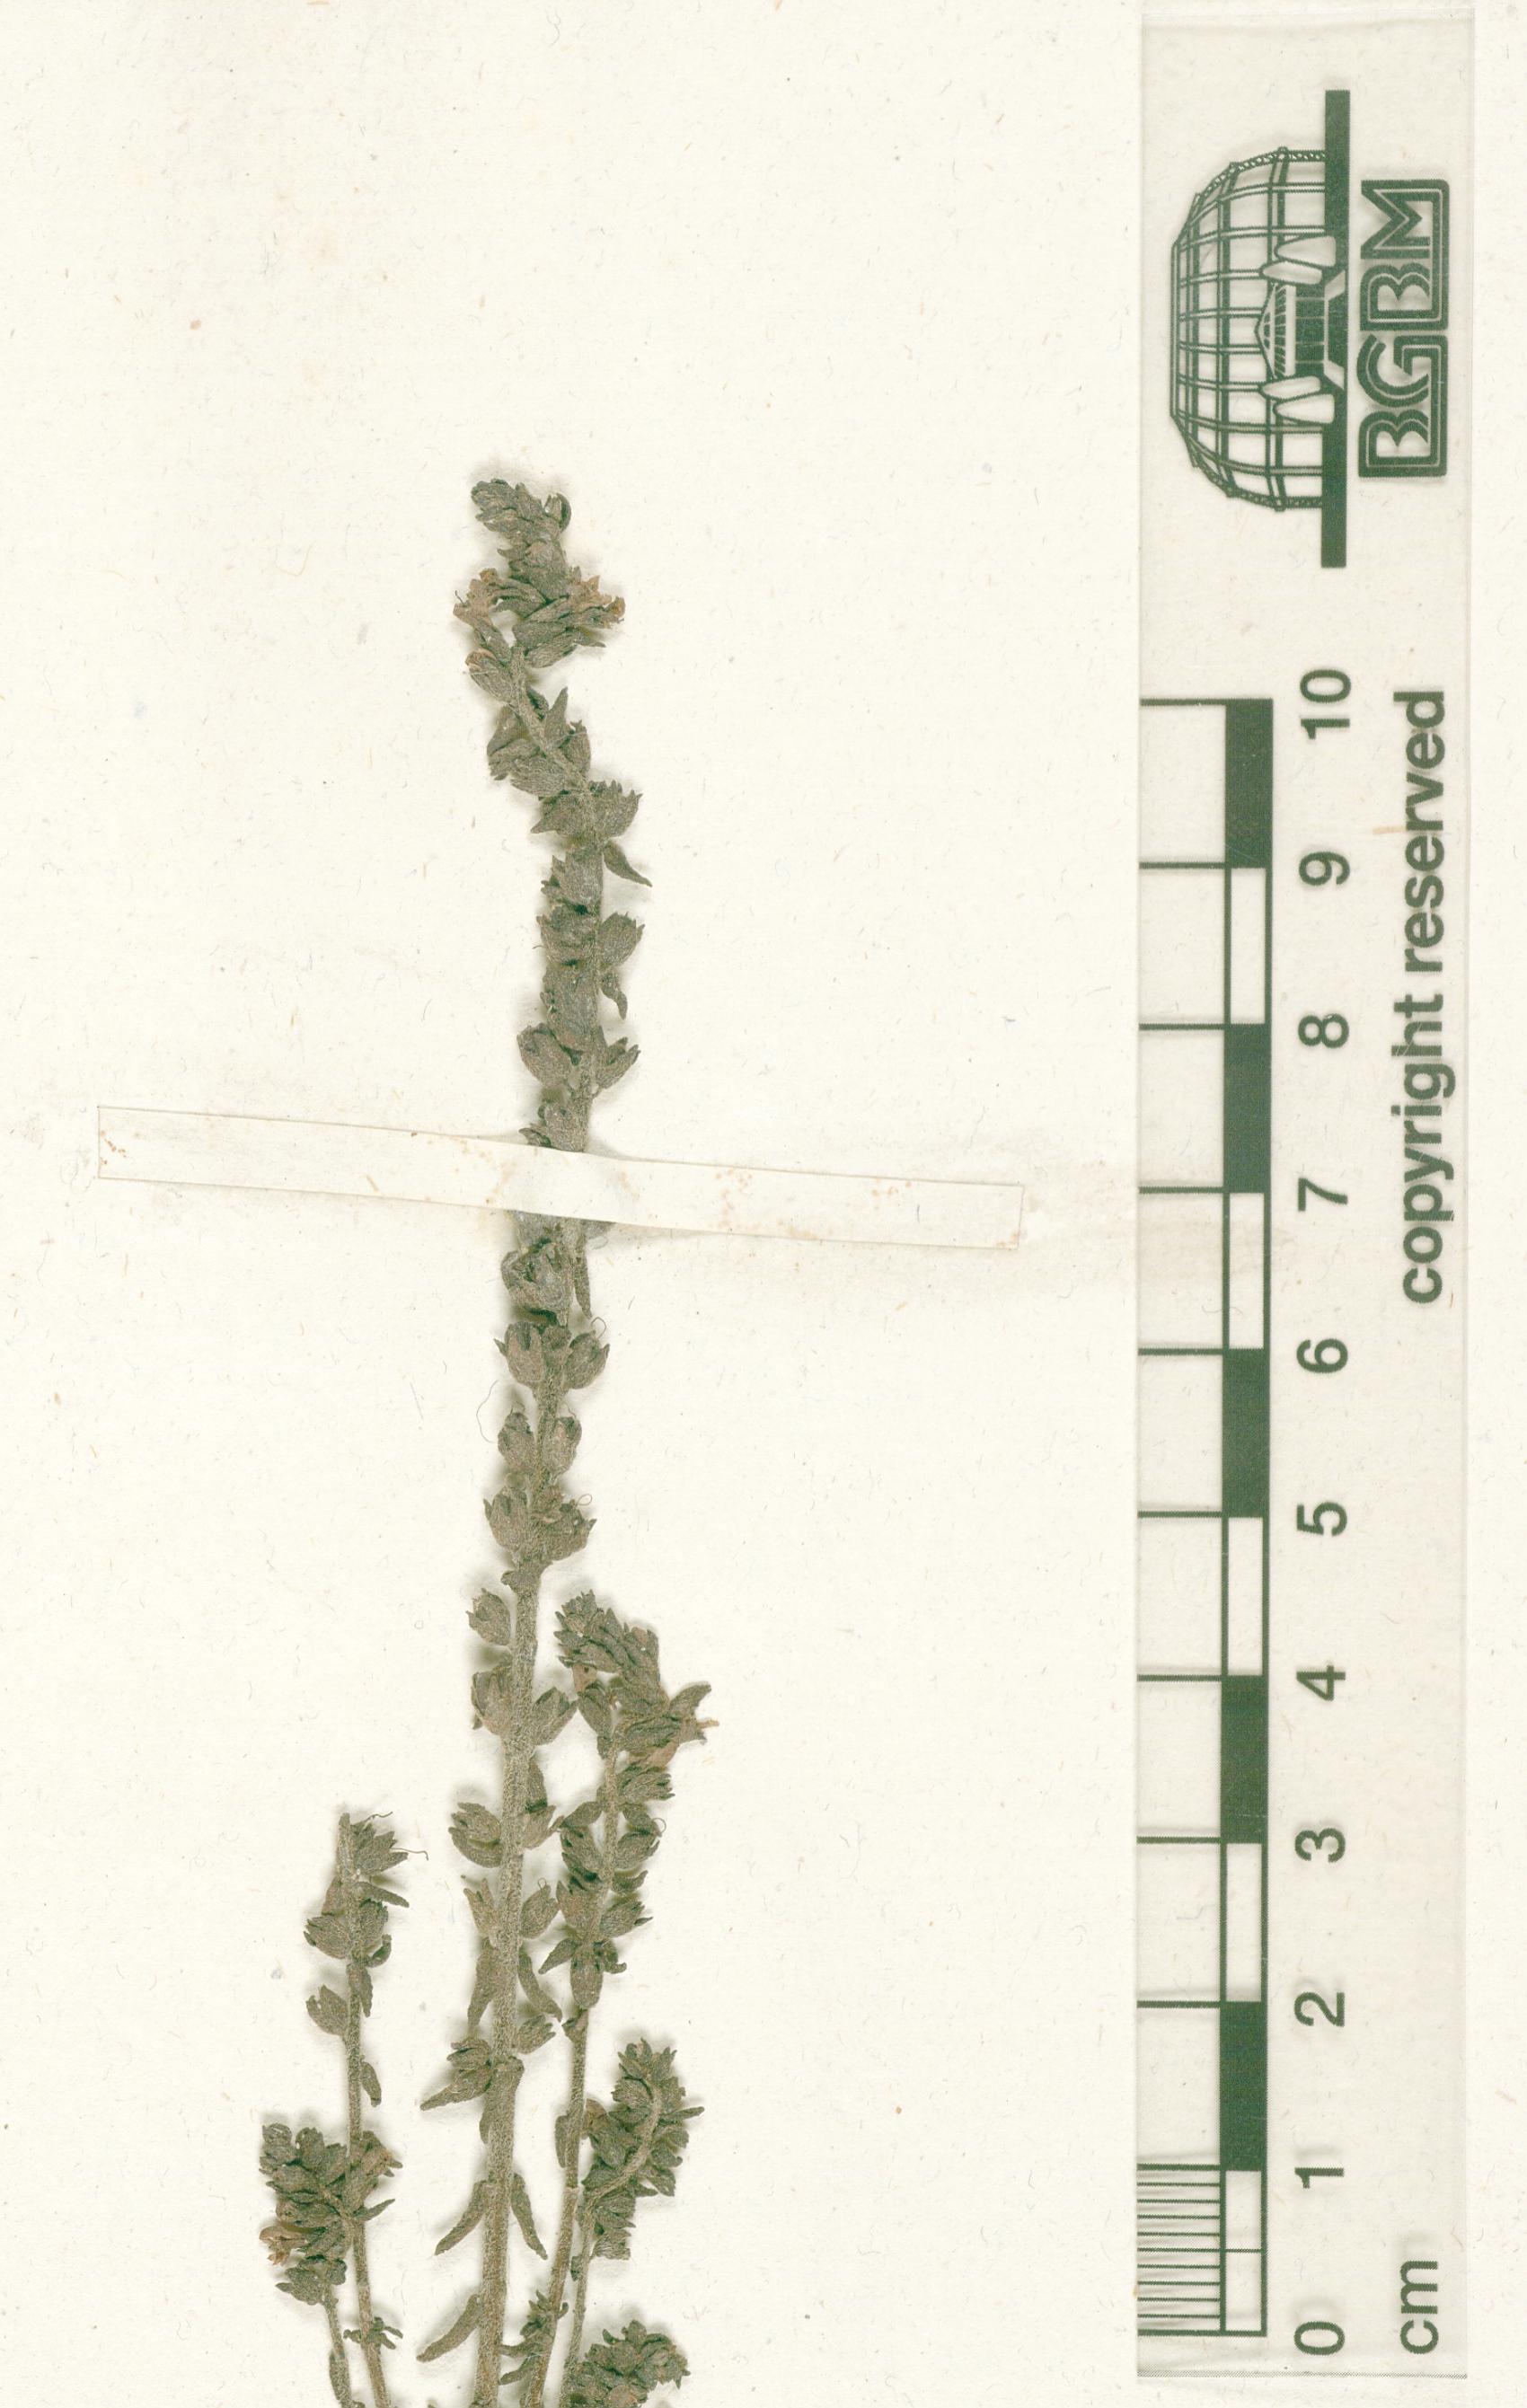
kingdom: Plantae
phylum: Tracheophyta
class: Magnoliopsida
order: Lamiales
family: Orobanchaceae
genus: Euphrasia
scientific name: Euphrasia kalifolia
